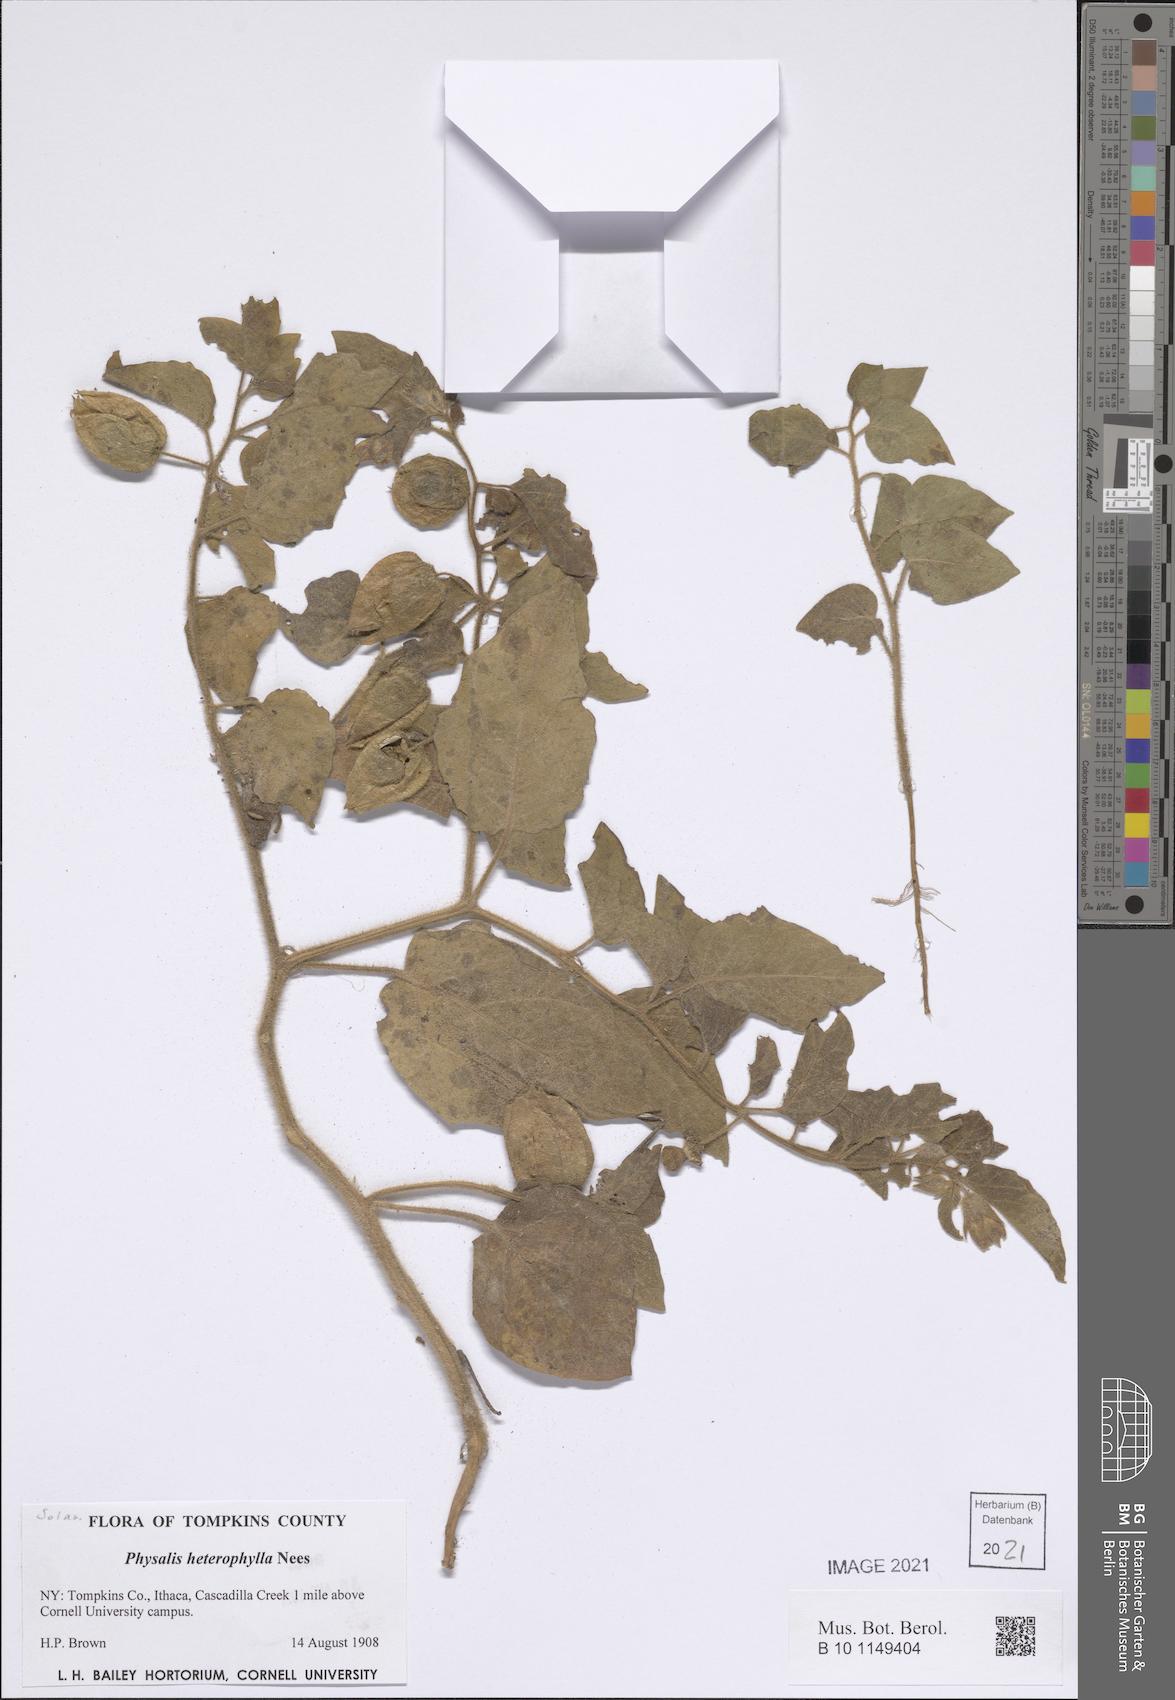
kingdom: Plantae
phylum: Tracheophyta
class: Magnoliopsida
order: Solanales
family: Solanaceae
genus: Physalis
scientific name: Physalis heterophylla
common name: Clammy ground-cherry
